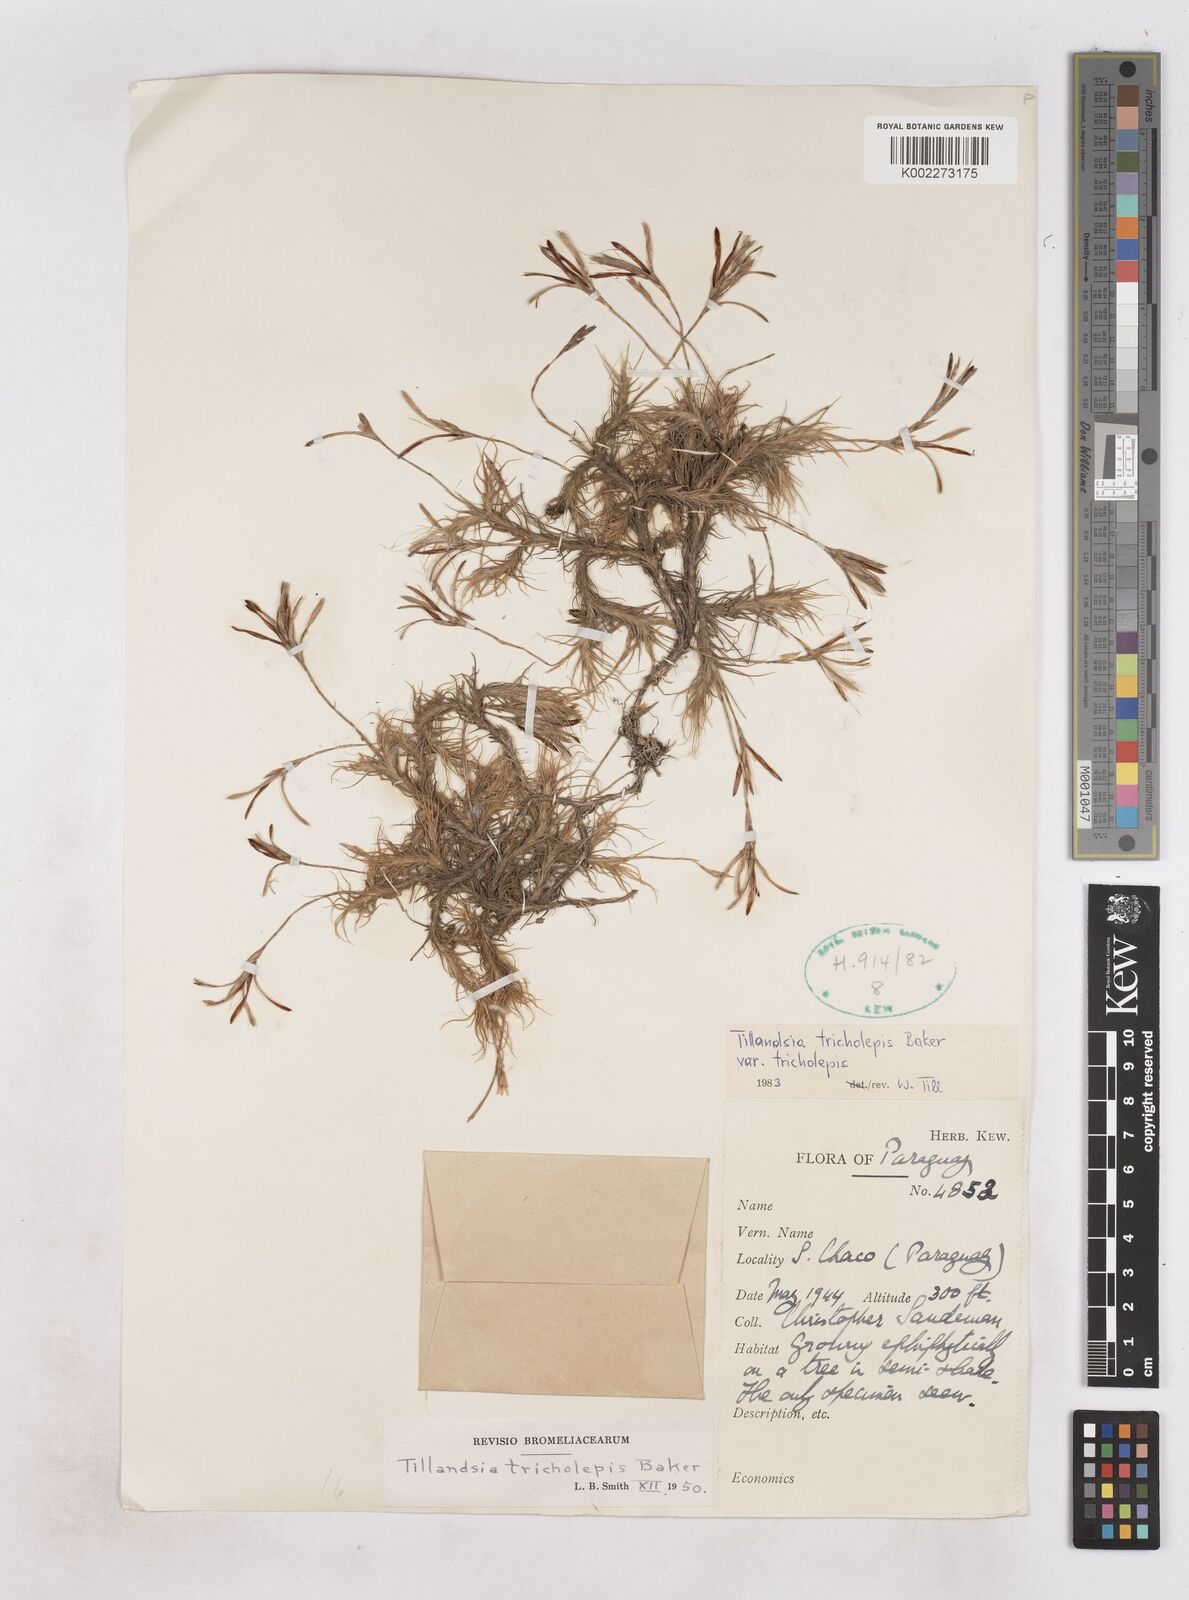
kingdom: Plantae
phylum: Tracheophyta
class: Liliopsida
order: Poales
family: Bromeliaceae
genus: Tillandsia
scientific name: Tillandsia tricholepis
